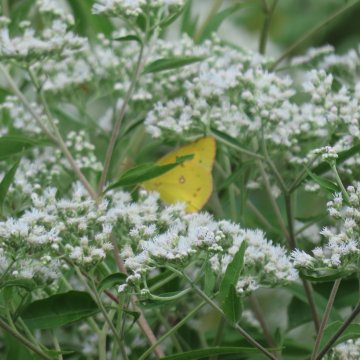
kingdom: Animalia
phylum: Arthropoda
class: Insecta
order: Lepidoptera
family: Pieridae
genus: Colias
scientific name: Colias eurytheme
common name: Orange Sulphur
